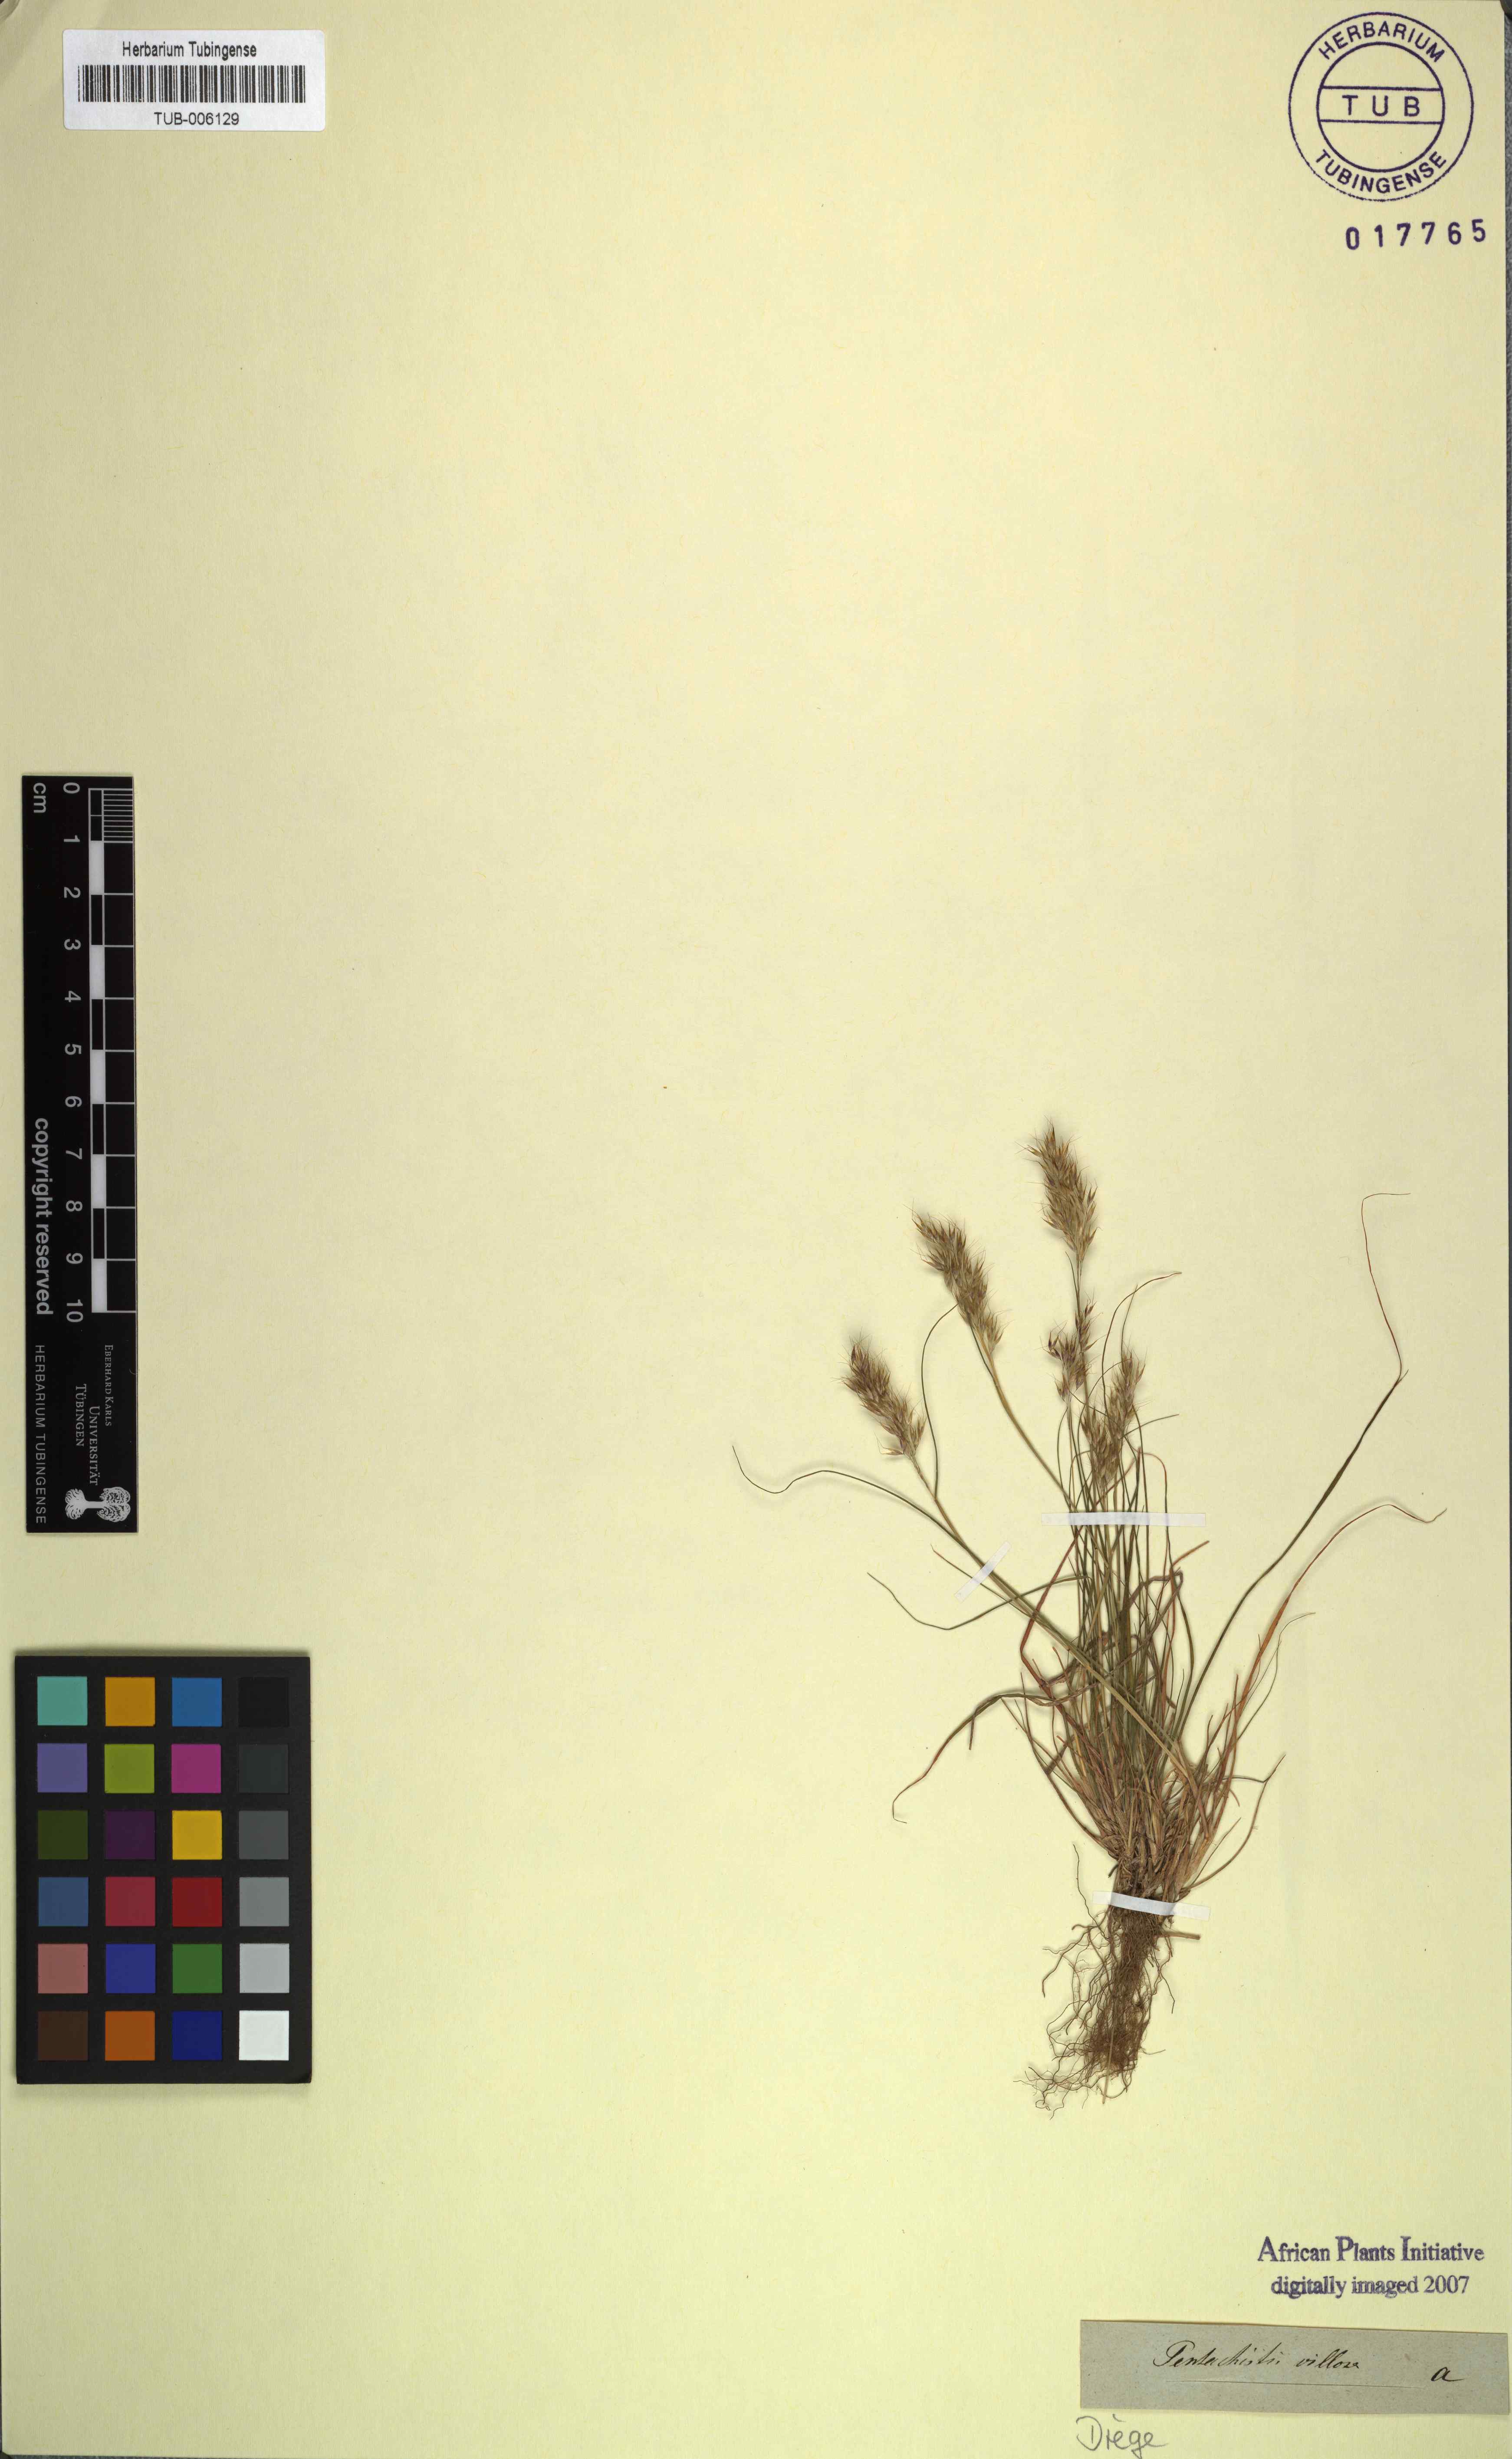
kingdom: Plantae
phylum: Tracheophyta
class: Liliopsida
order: Poales
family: Poaceae
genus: Pentameris
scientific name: Pentameris triseta
